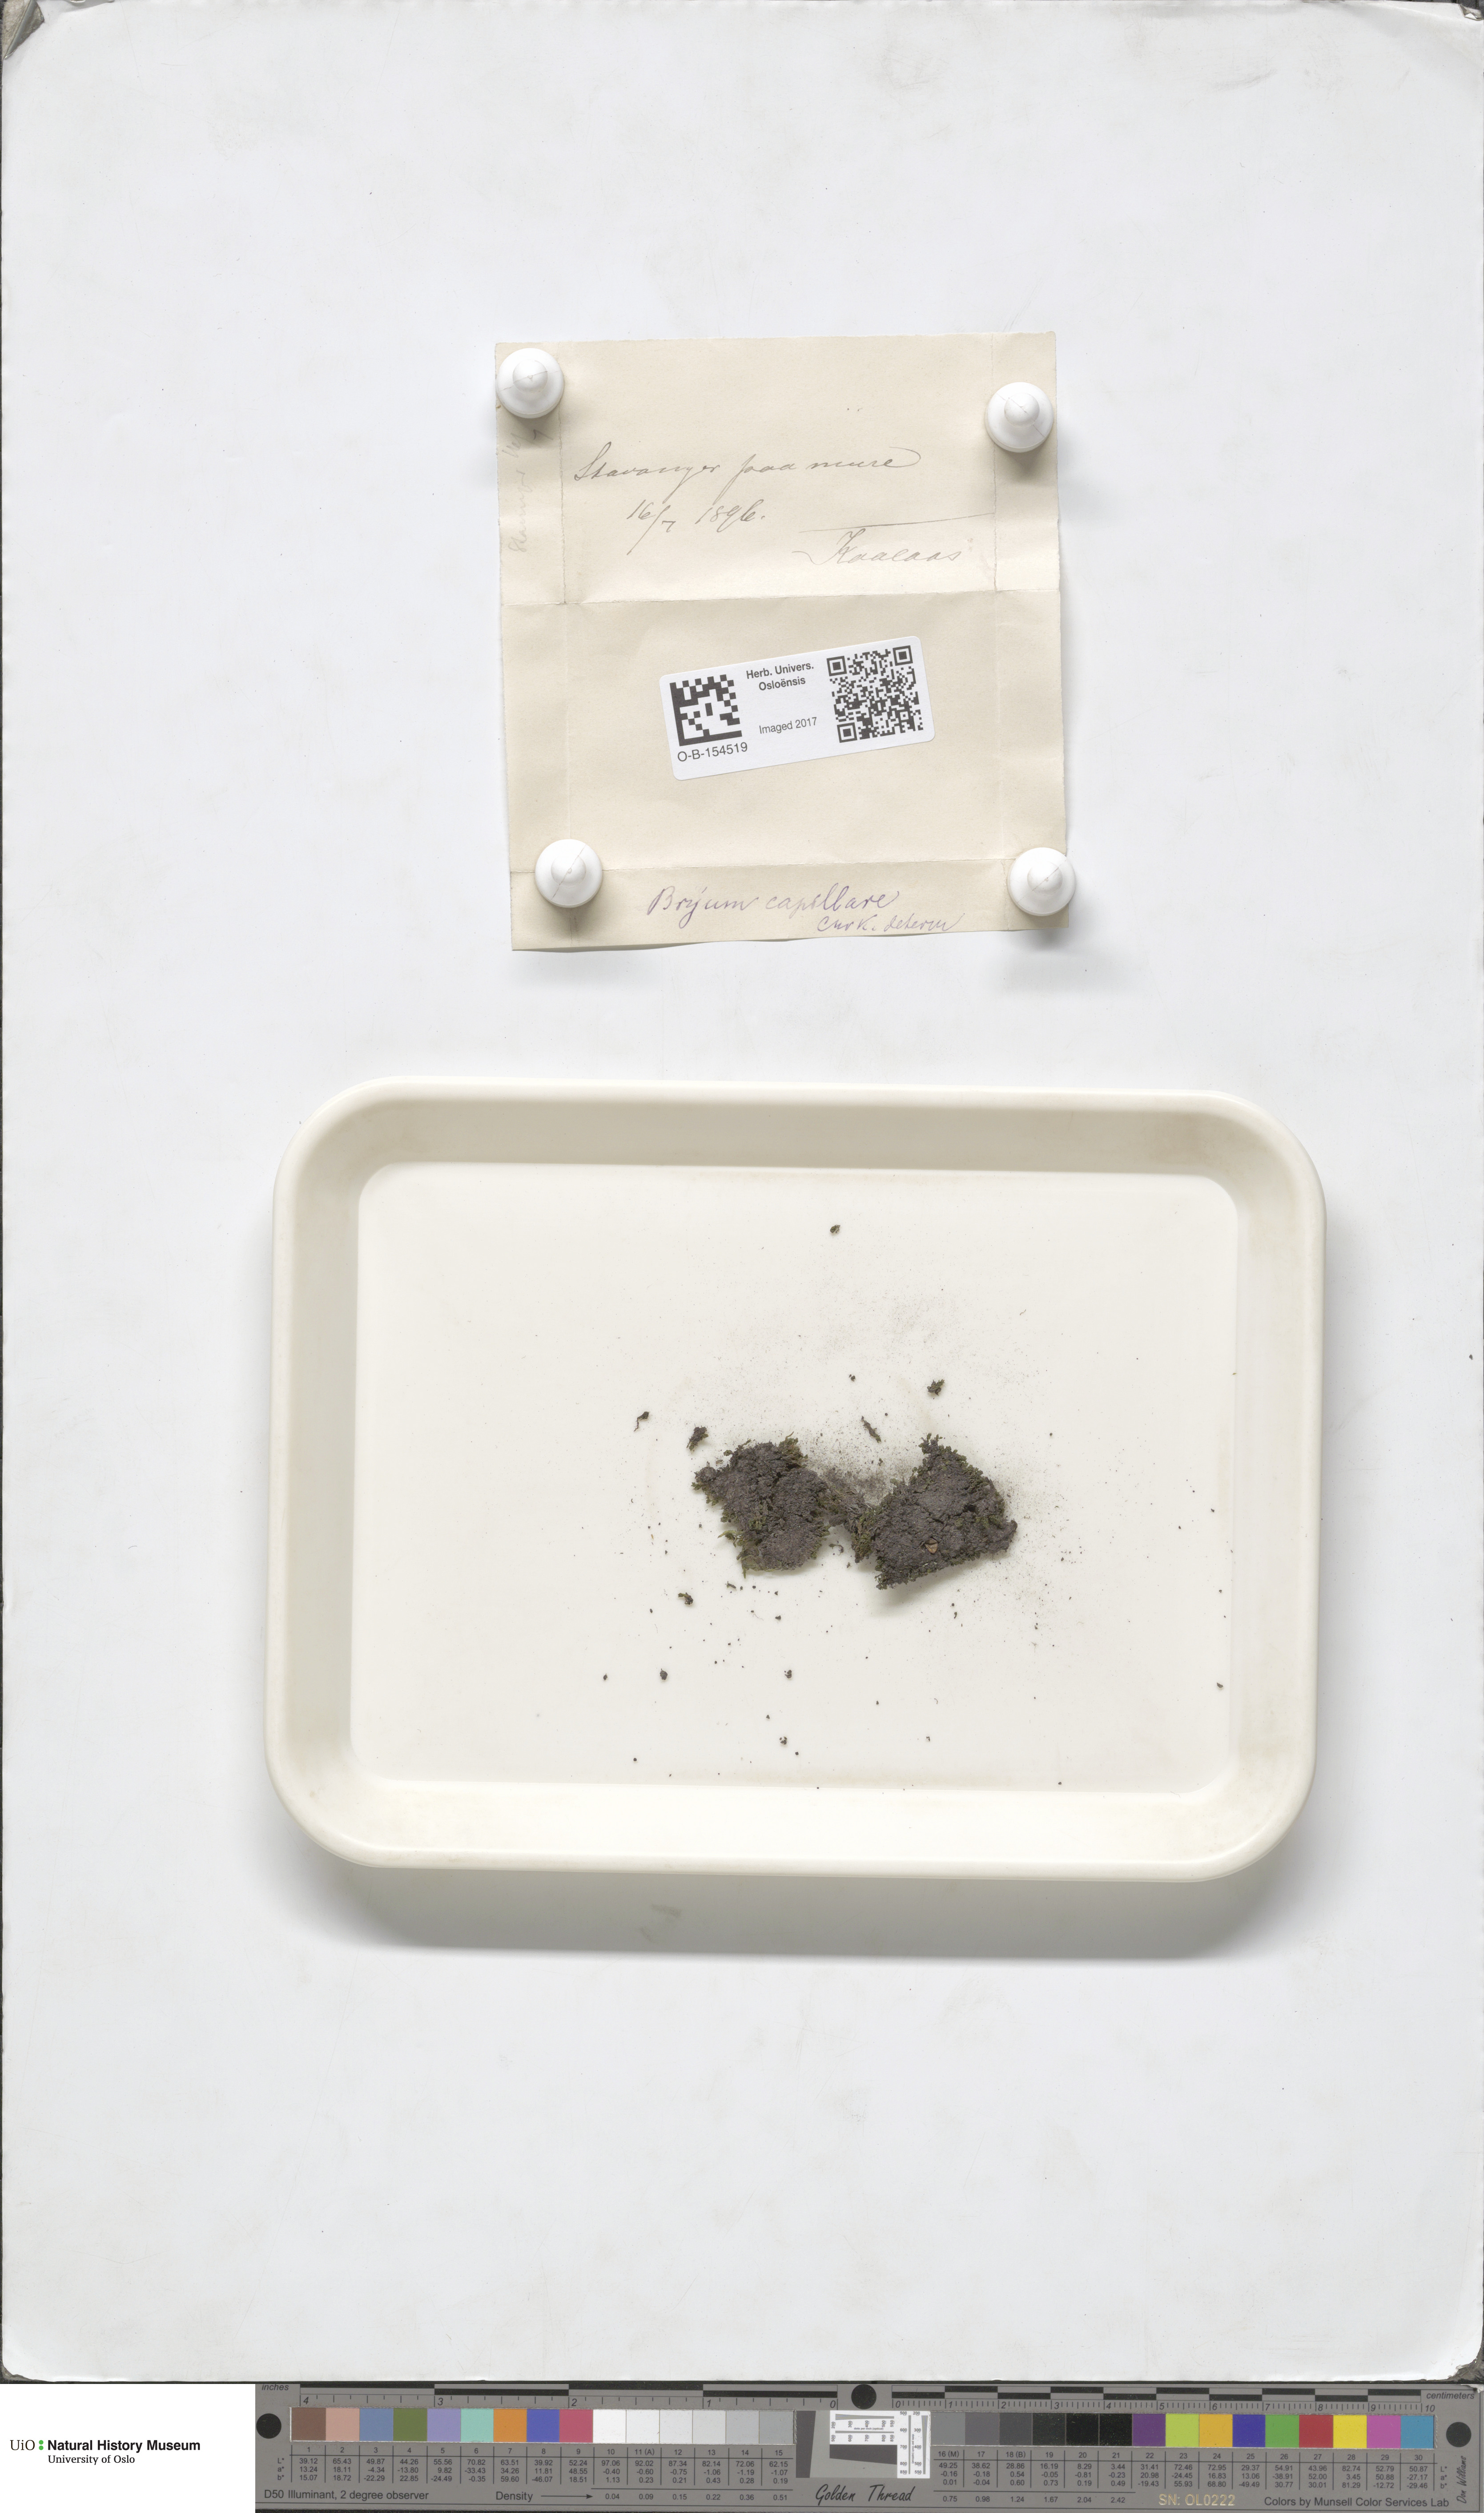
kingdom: Plantae
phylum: Bryophyta
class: Bryopsida
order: Bryales
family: Bryaceae
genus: Rosulabryum
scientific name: Rosulabryum capillare
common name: Capillary thread-moss
